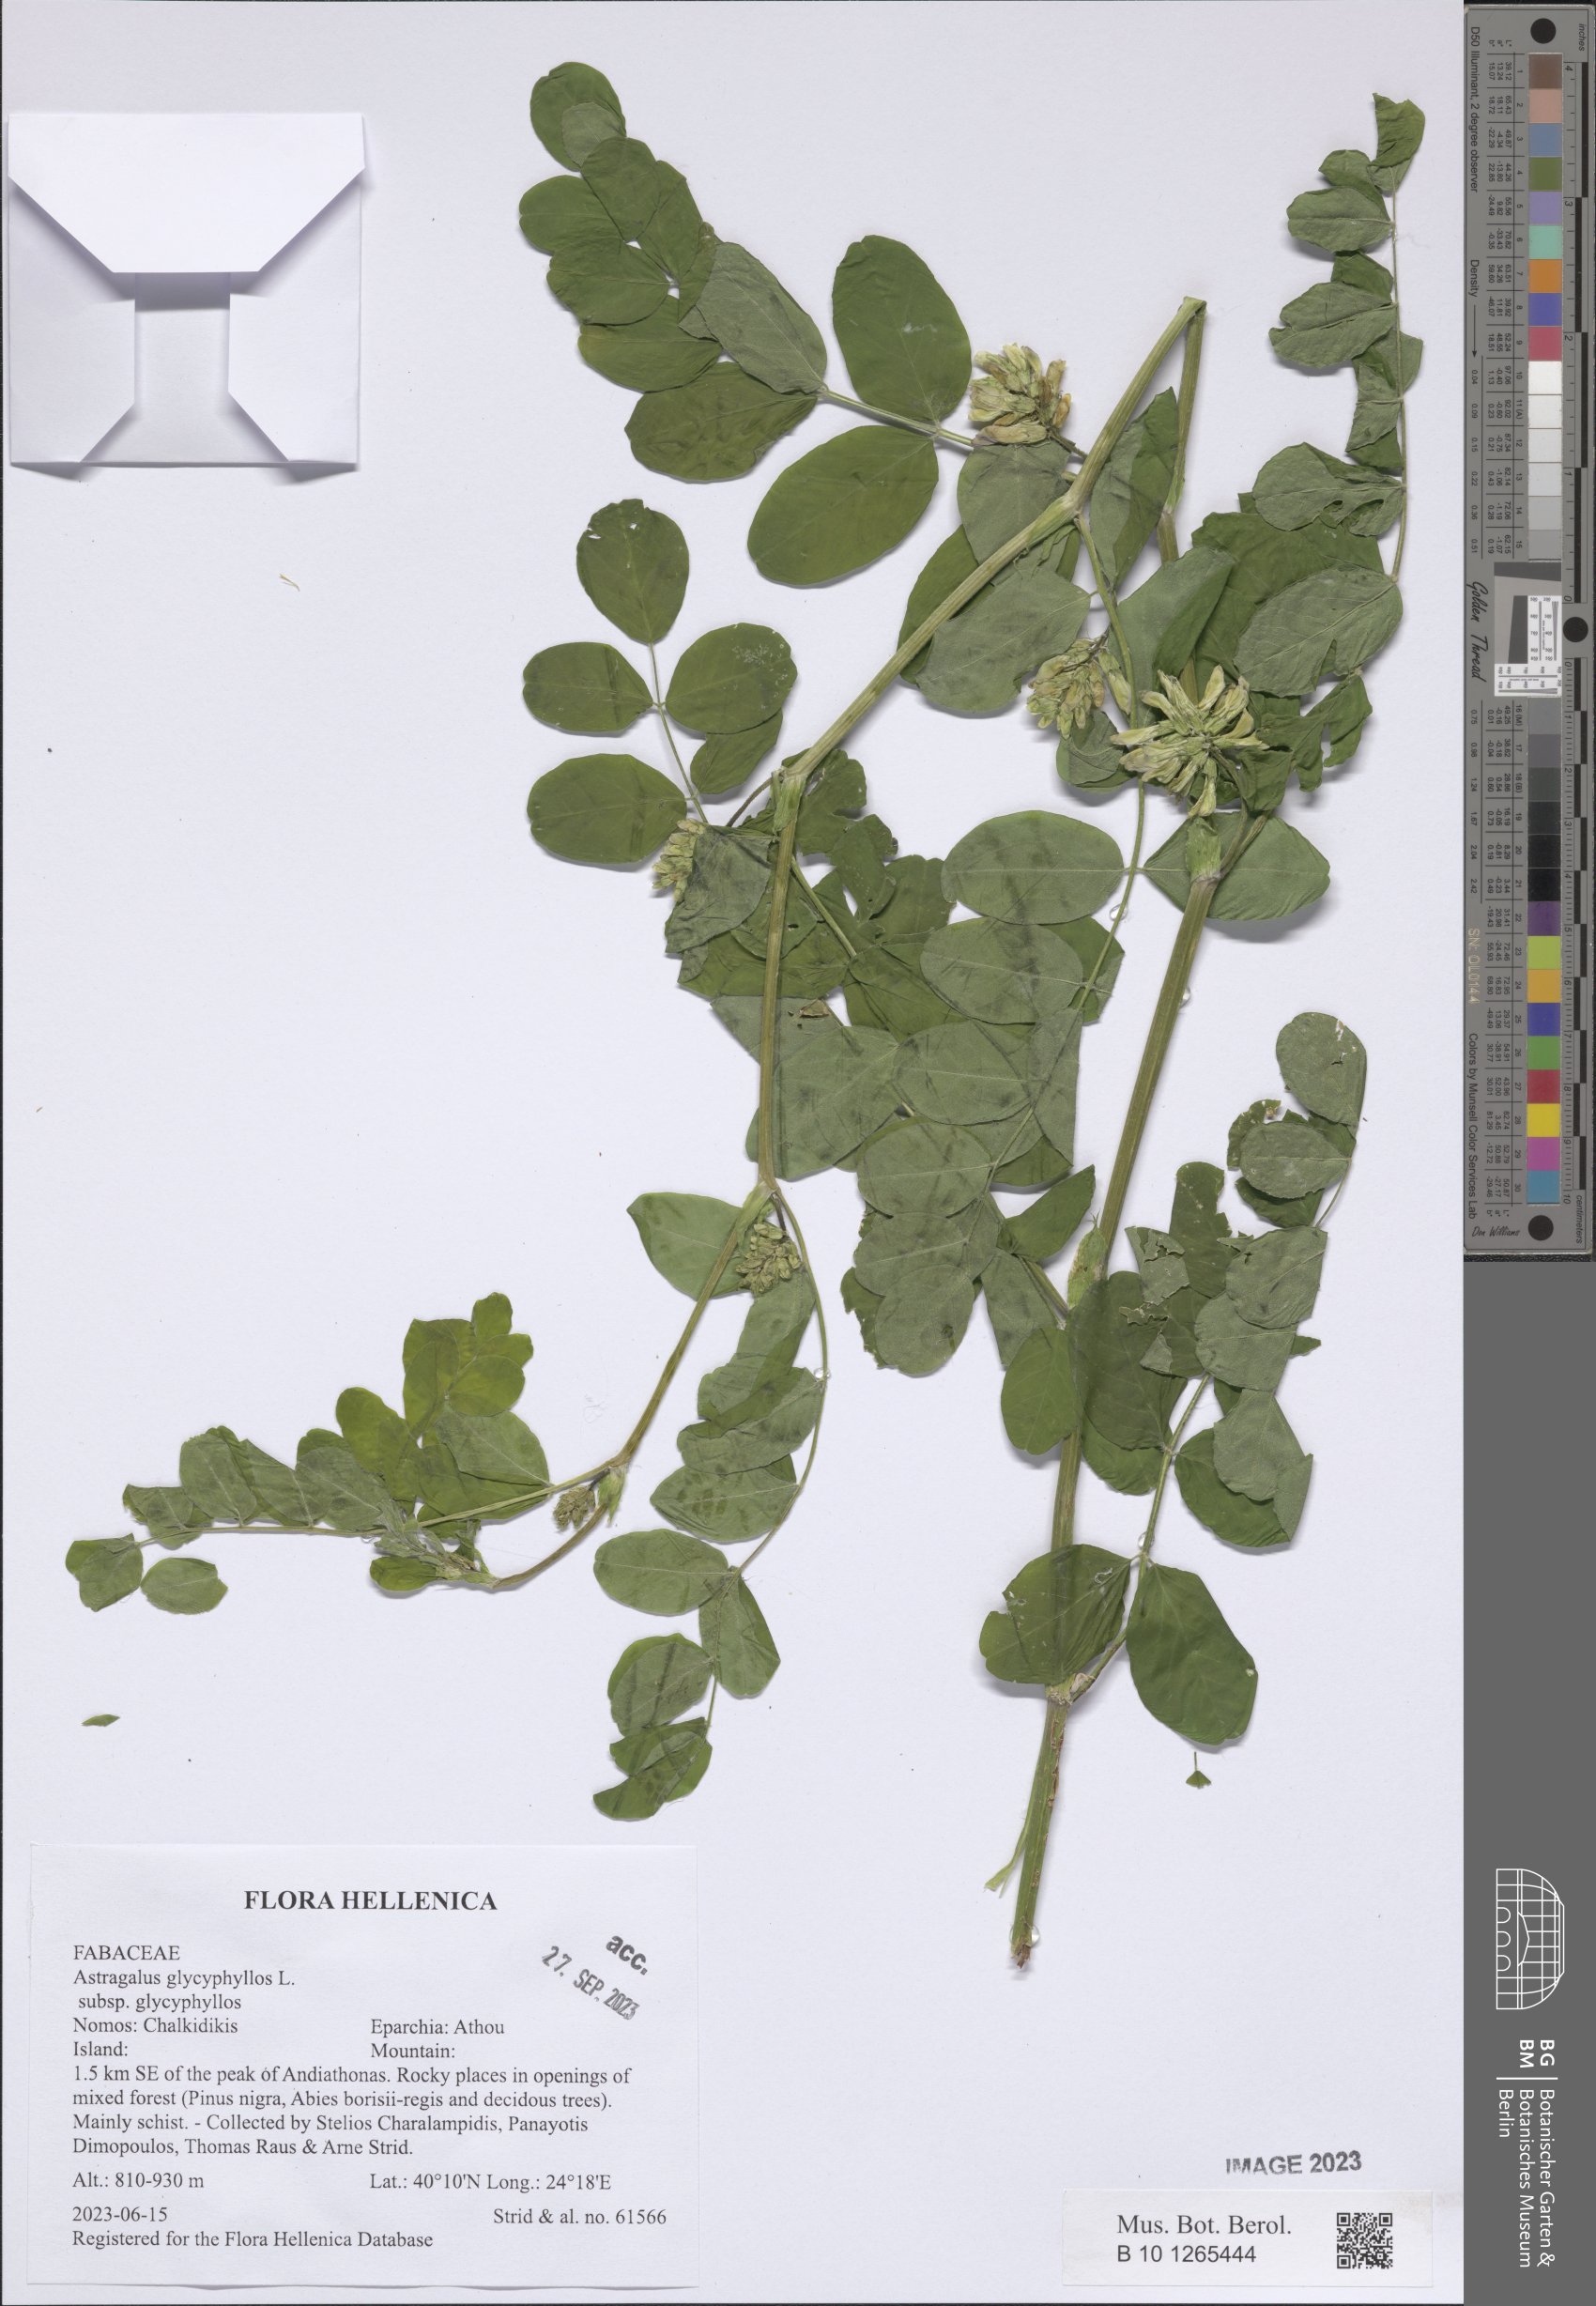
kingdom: Plantae
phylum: Tracheophyta
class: Magnoliopsida
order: Fabales
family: Fabaceae
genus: Astragalus
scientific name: Astragalus glycyphyllos
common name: Wild liquorice
